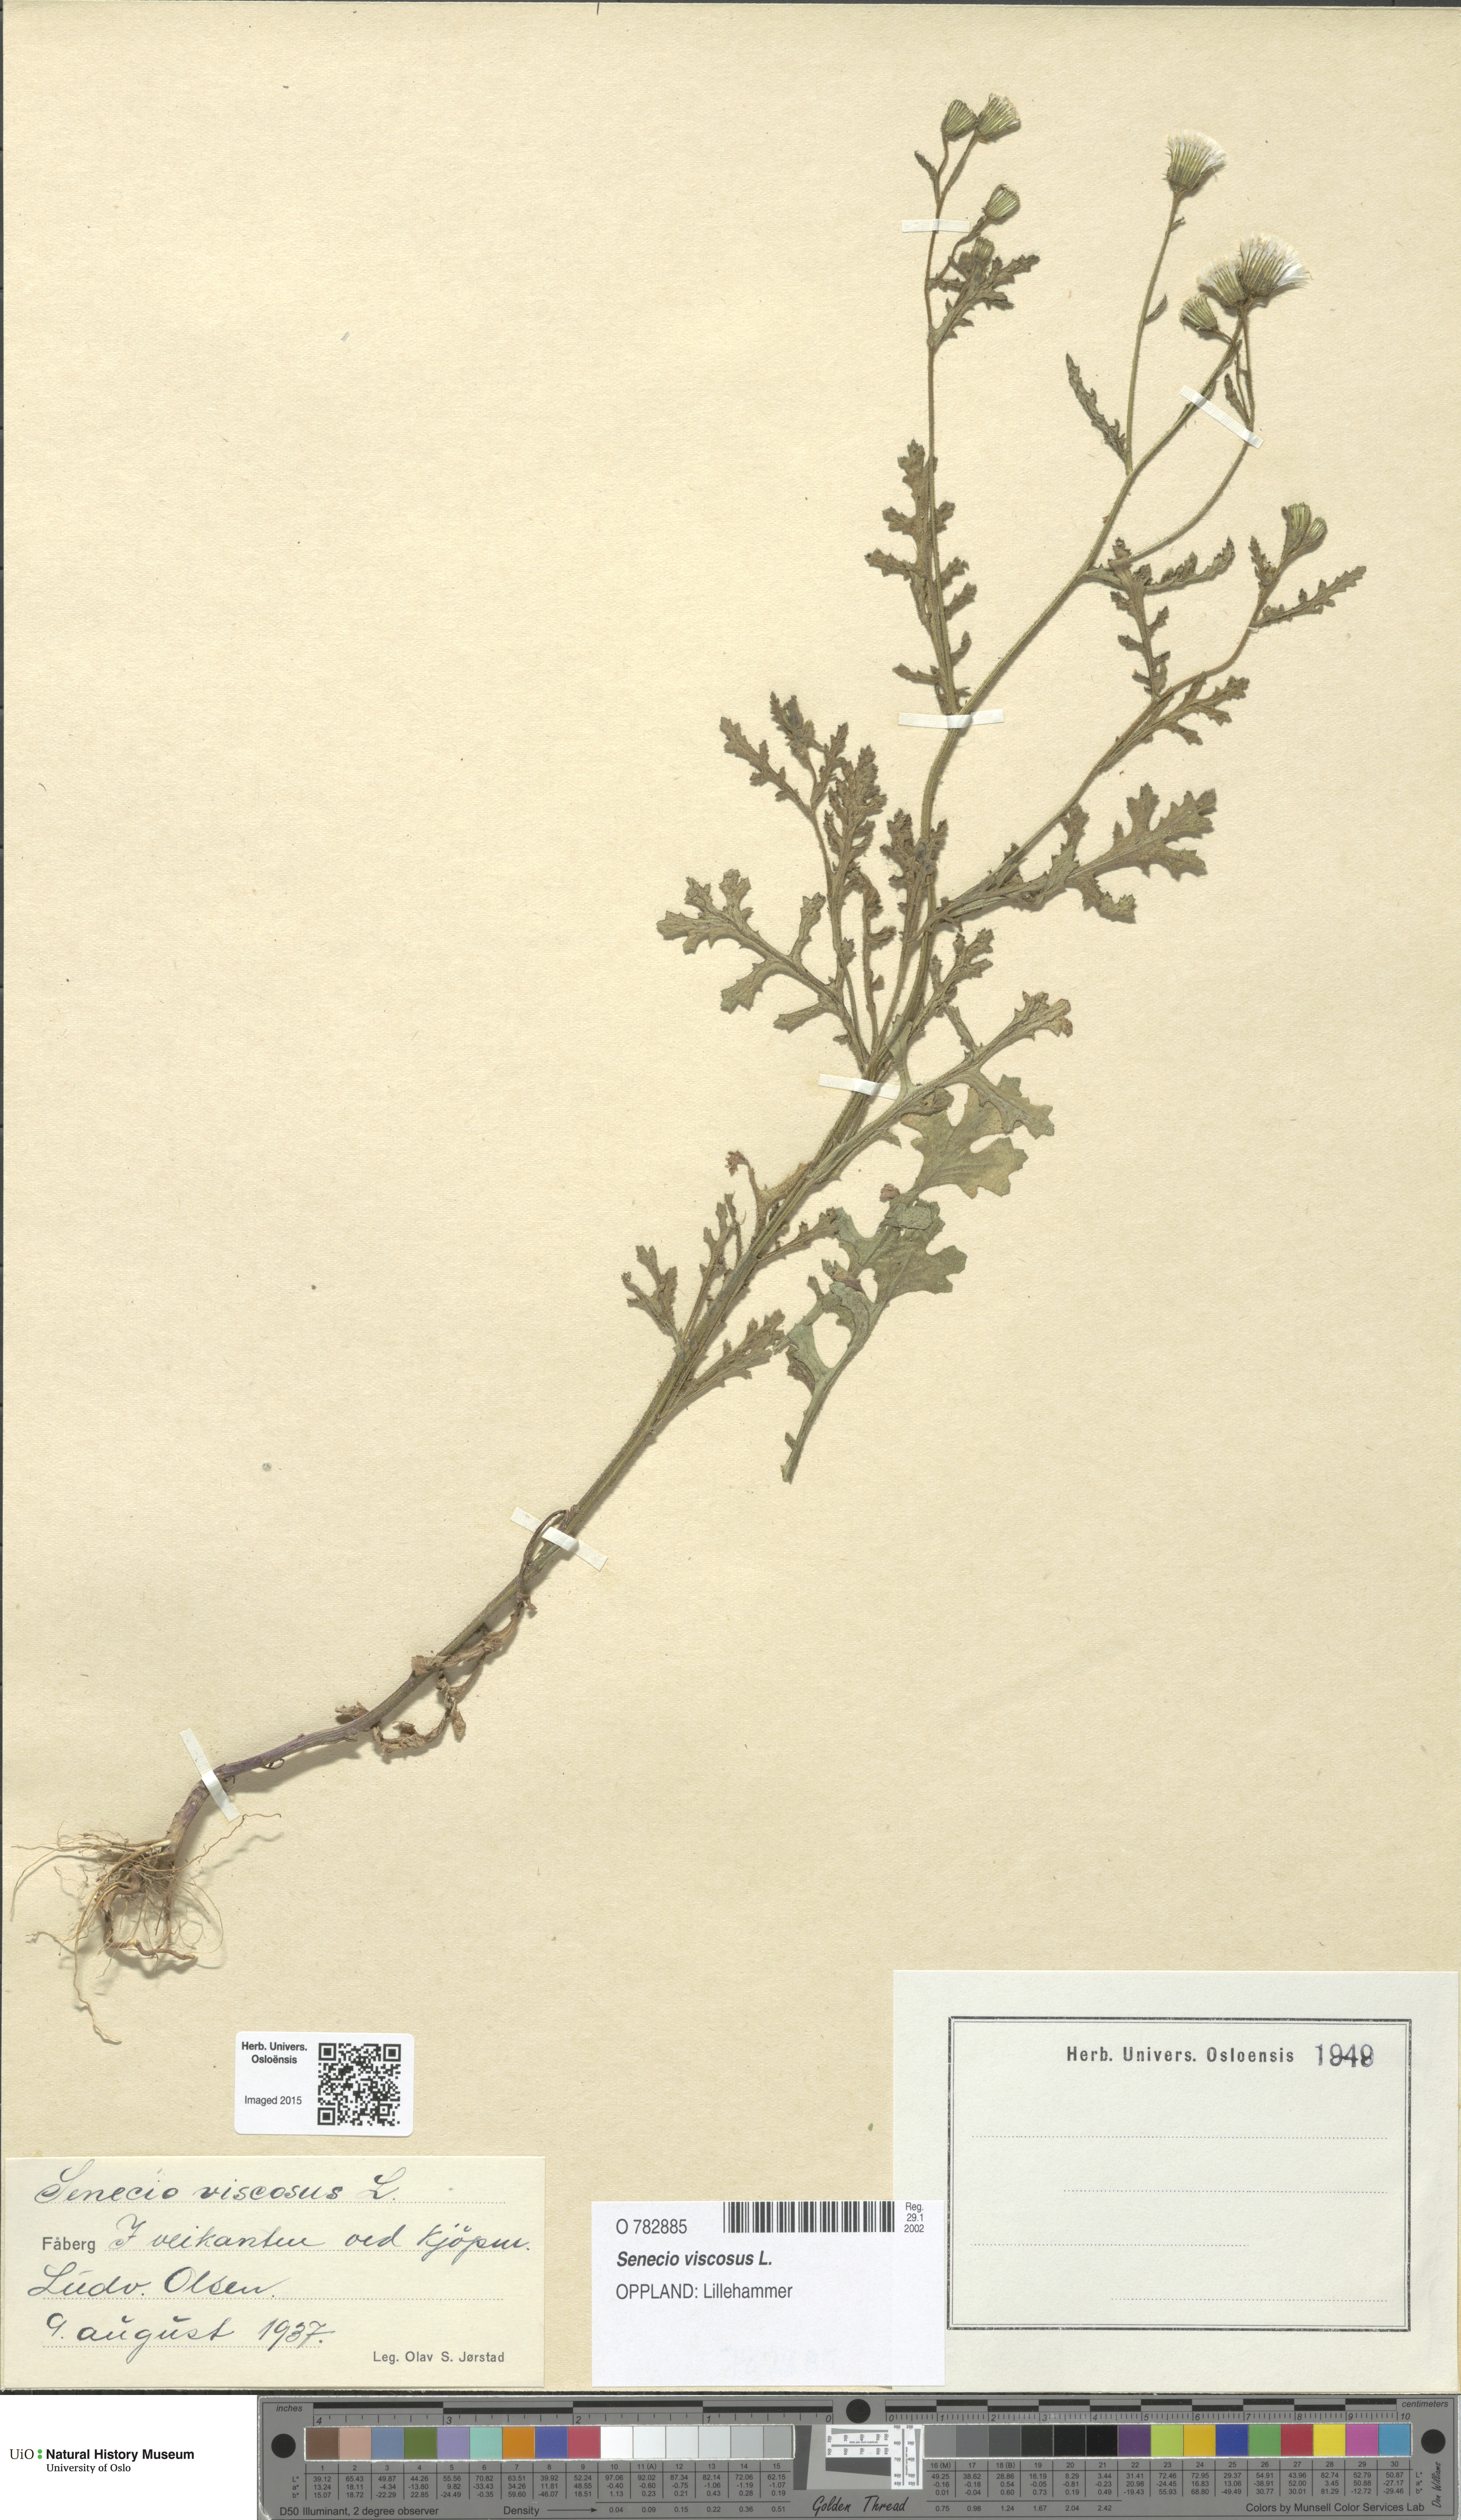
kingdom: Plantae
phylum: Tracheophyta
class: Magnoliopsida
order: Asterales
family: Asteraceae
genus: Senecio
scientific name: Senecio viscosus
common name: Sticky groundsel
